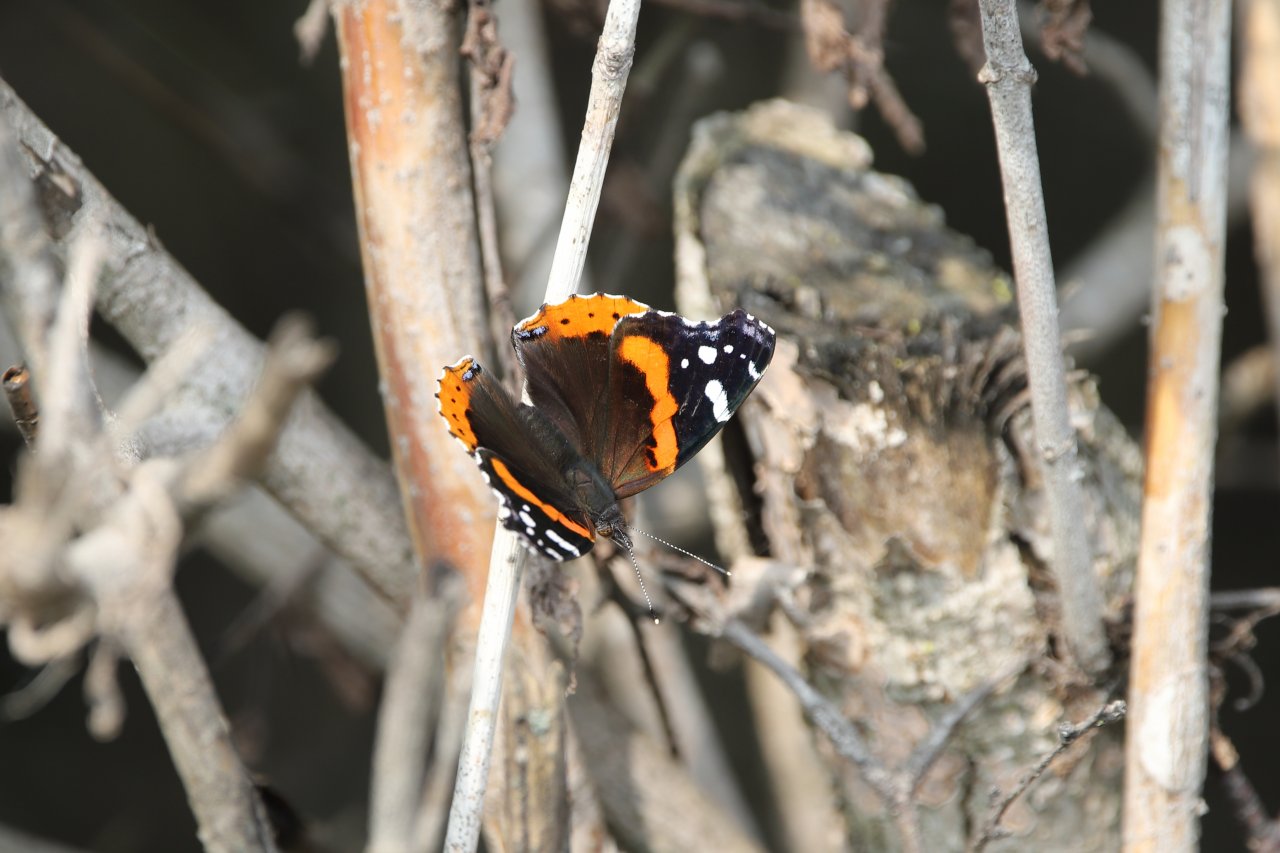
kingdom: Animalia
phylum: Arthropoda
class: Insecta
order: Lepidoptera
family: Nymphalidae
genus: Vanessa
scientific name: Vanessa atalanta
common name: Red Admiral
